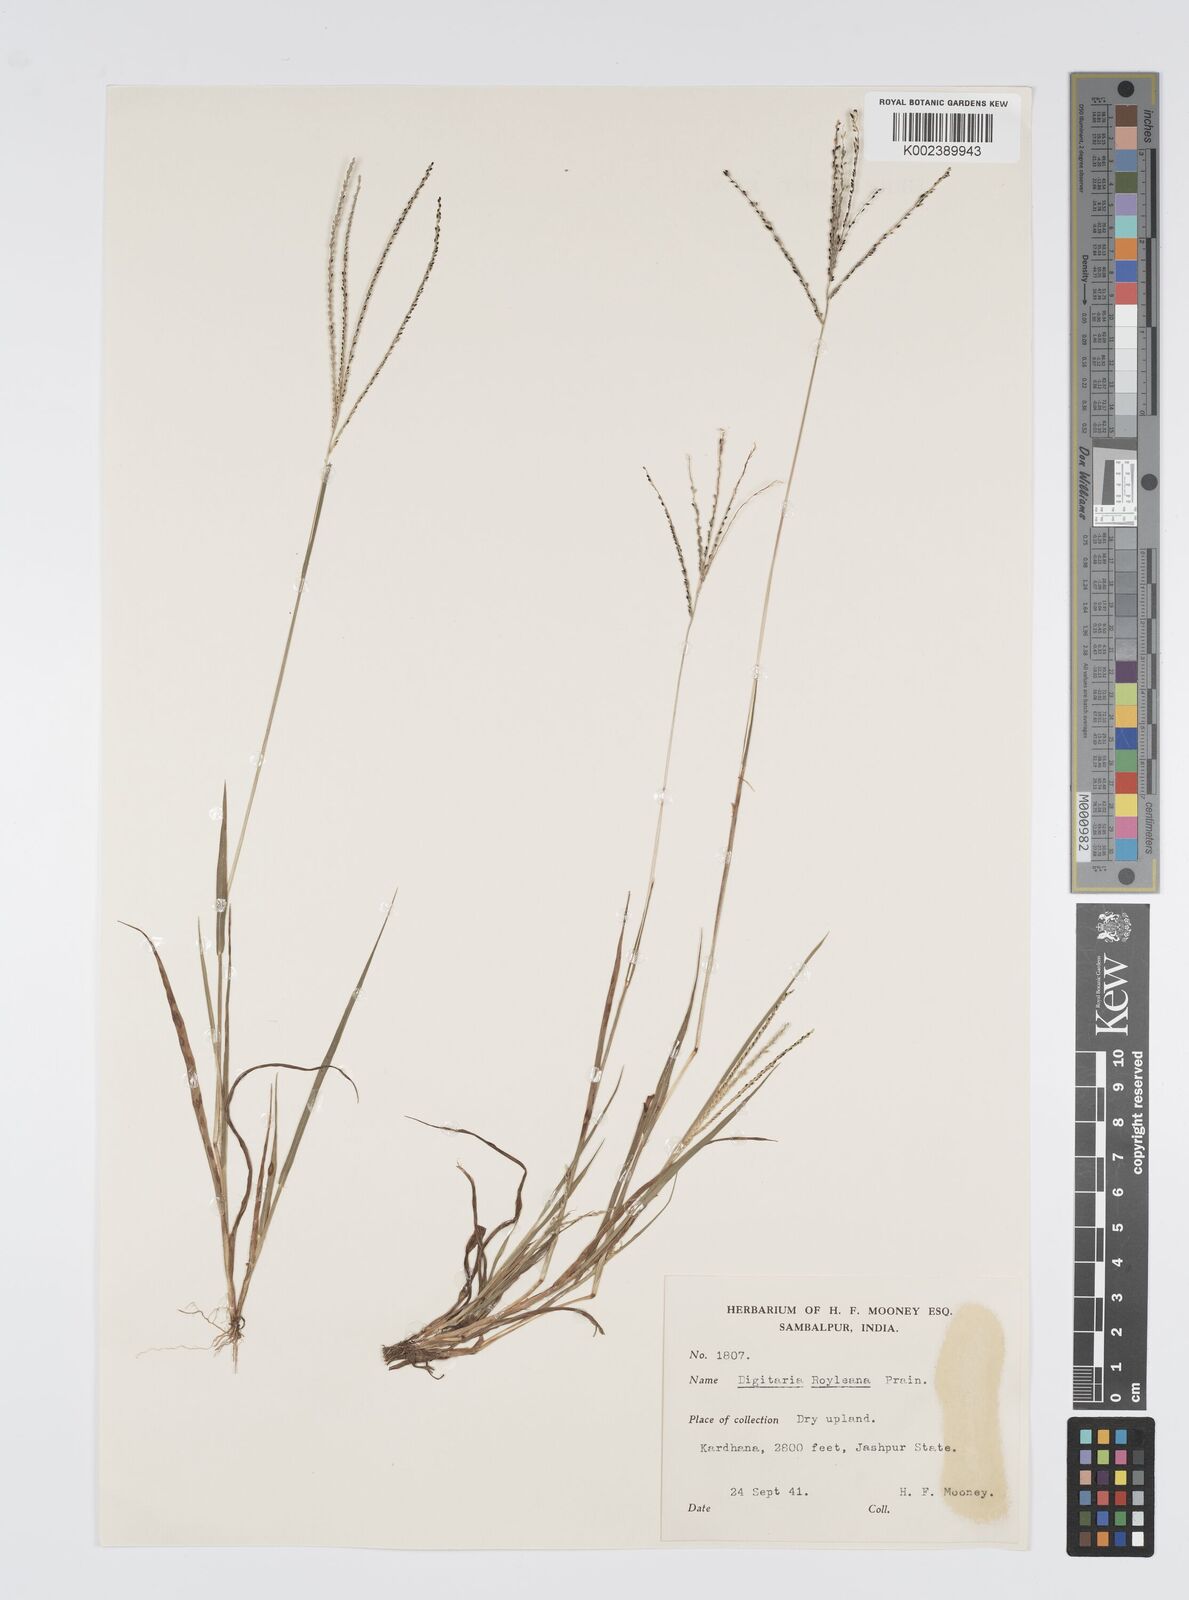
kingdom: Plantae
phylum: Tracheophyta
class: Liliopsida
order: Poales
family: Poaceae
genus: Digitaria
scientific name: Digitaria stricta
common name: Crabgrass
